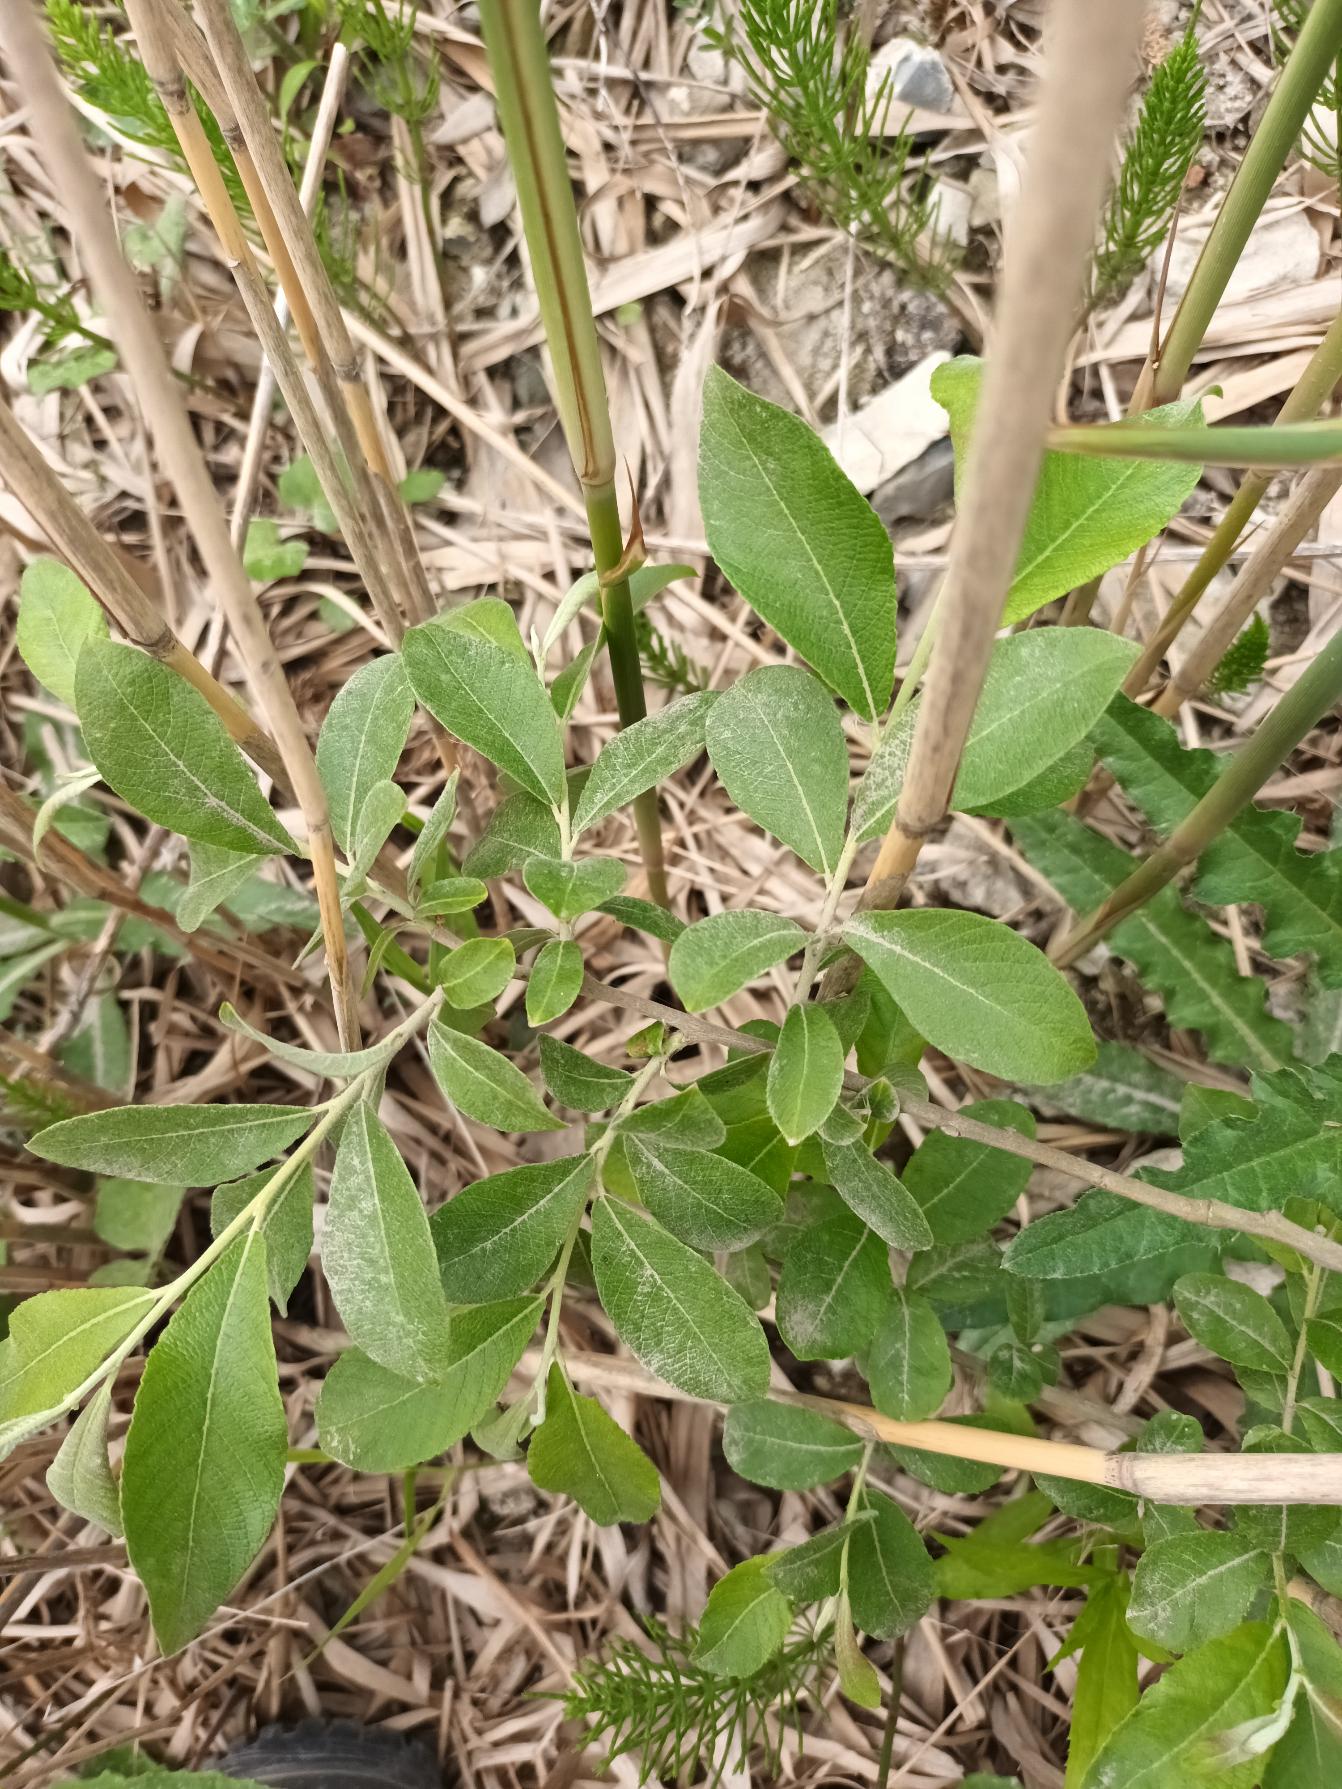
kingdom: Plantae
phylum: Tracheophyta
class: Magnoliopsida
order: Malpighiales
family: Salicaceae
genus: Salix
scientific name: Salix cinerea
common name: Grå-pil
